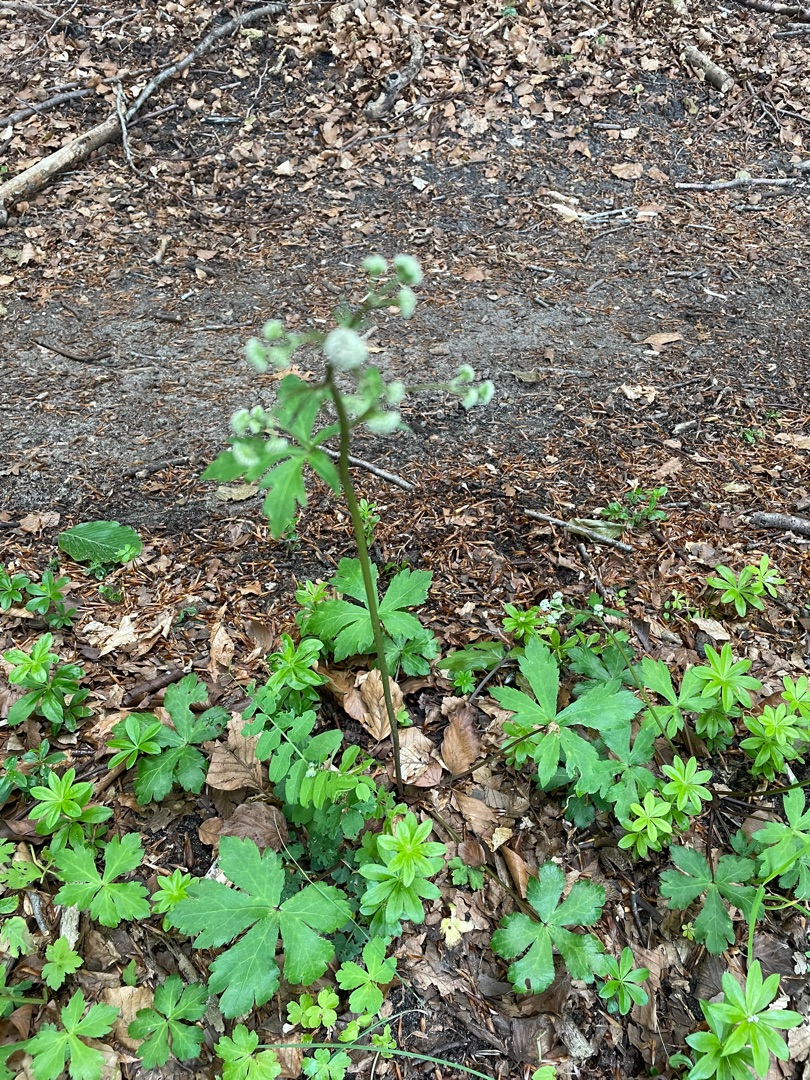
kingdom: Plantae
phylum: Tracheophyta
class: Magnoliopsida
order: Apiales
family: Apiaceae
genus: Sanicula
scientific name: Sanicula europaea
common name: Sanikel
